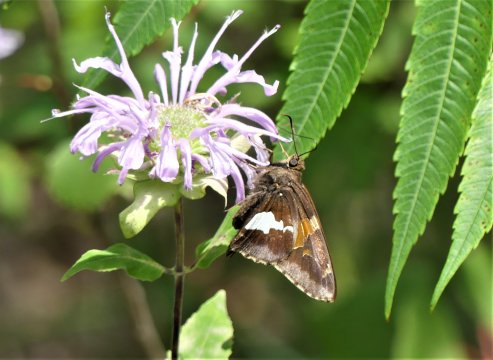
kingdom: Animalia
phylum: Arthropoda
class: Insecta
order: Lepidoptera
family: Hesperiidae
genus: Epargyreus
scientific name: Epargyreus clarus
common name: Silver-spotted Skipper
